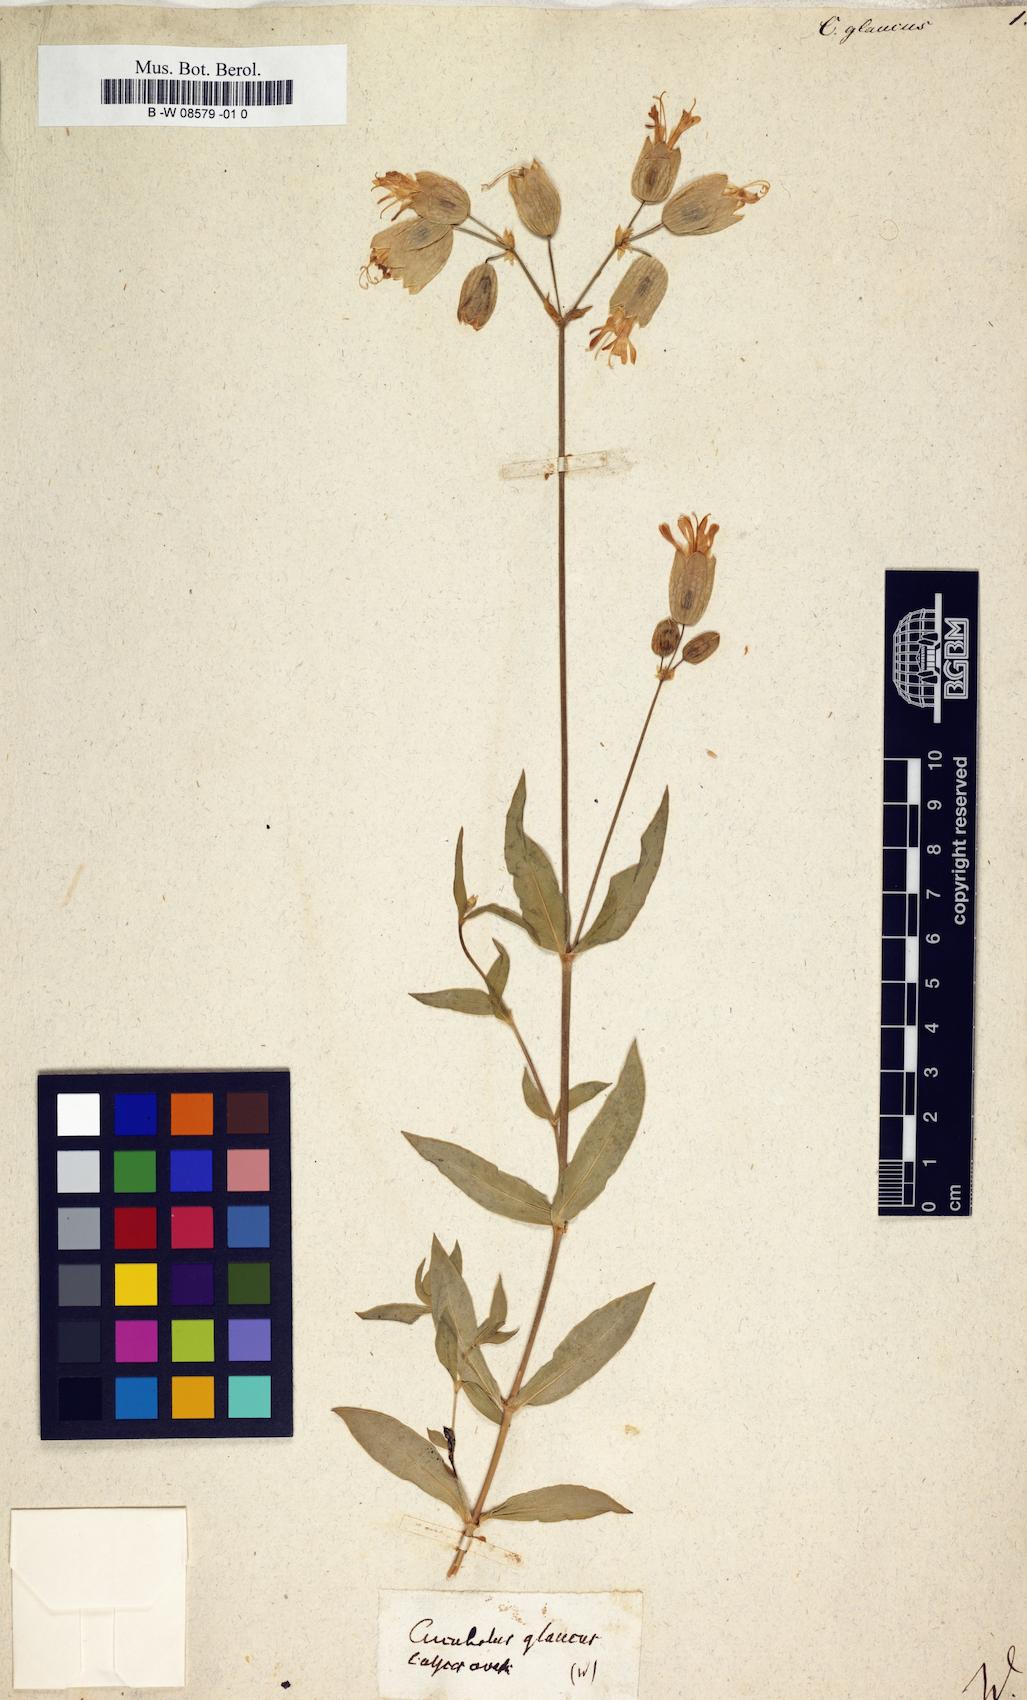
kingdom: Plantae
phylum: Tracheophyta
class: Magnoliopsida
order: Caryophyllales
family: Caryophyllaceae
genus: Atocion
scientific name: Atocion armeria
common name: Sweet william catchfly
